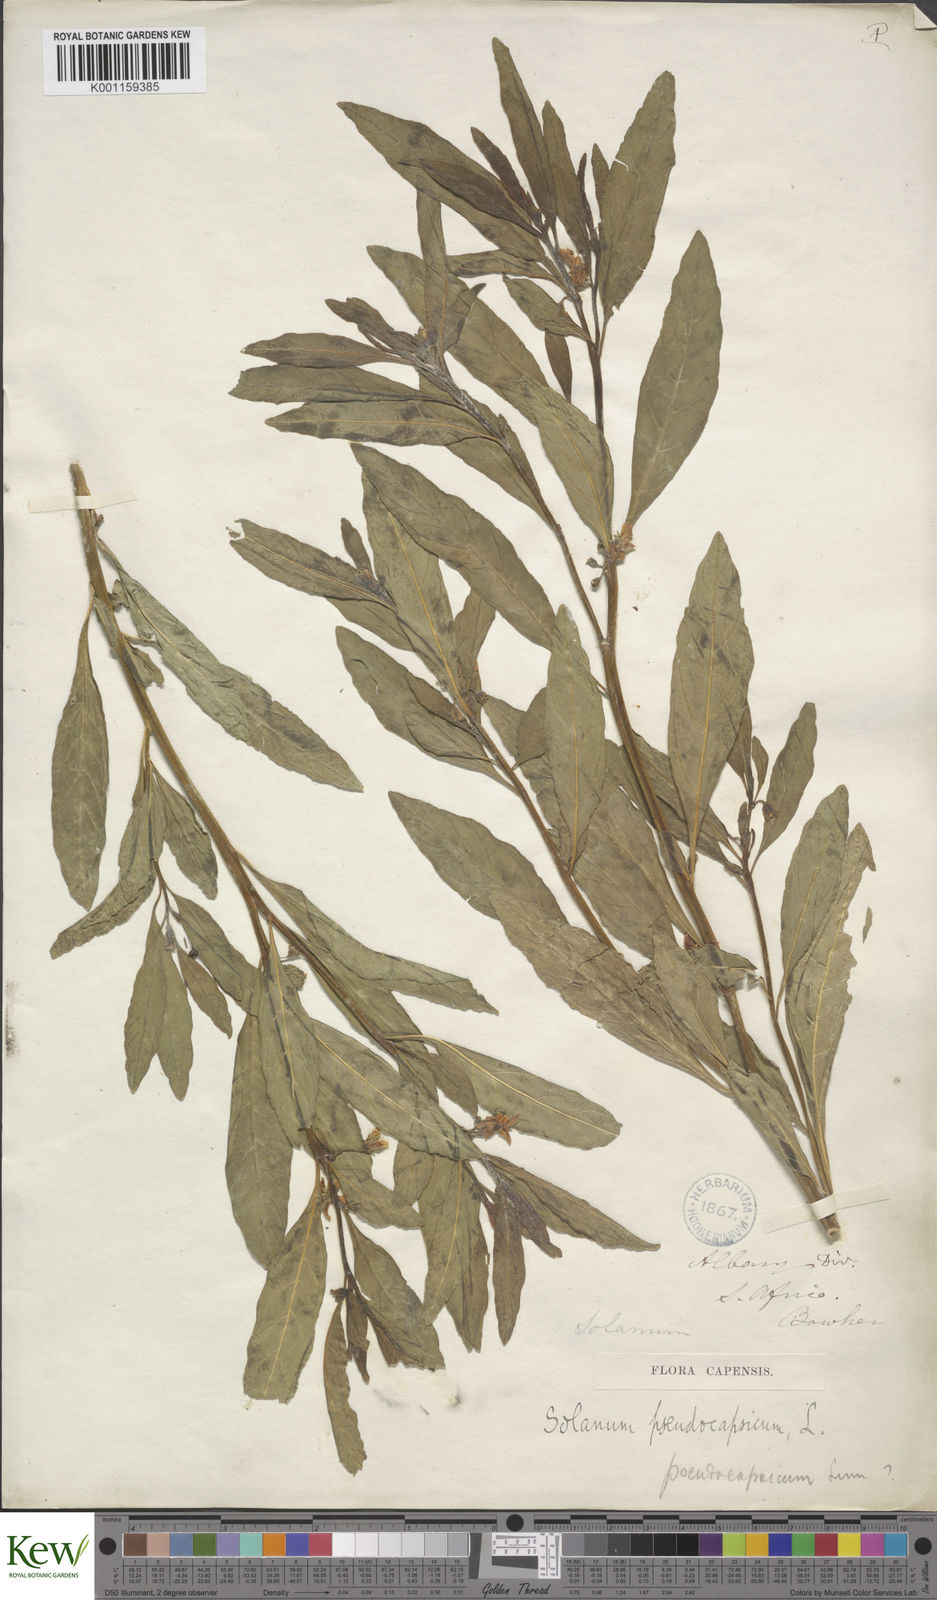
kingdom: Plantae
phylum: Tracheophyta
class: Magnoliopsida
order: Solanales
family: Solanaceae
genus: Solanum
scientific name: Solanum pseudocapsicum
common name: Jerusalem cherry
